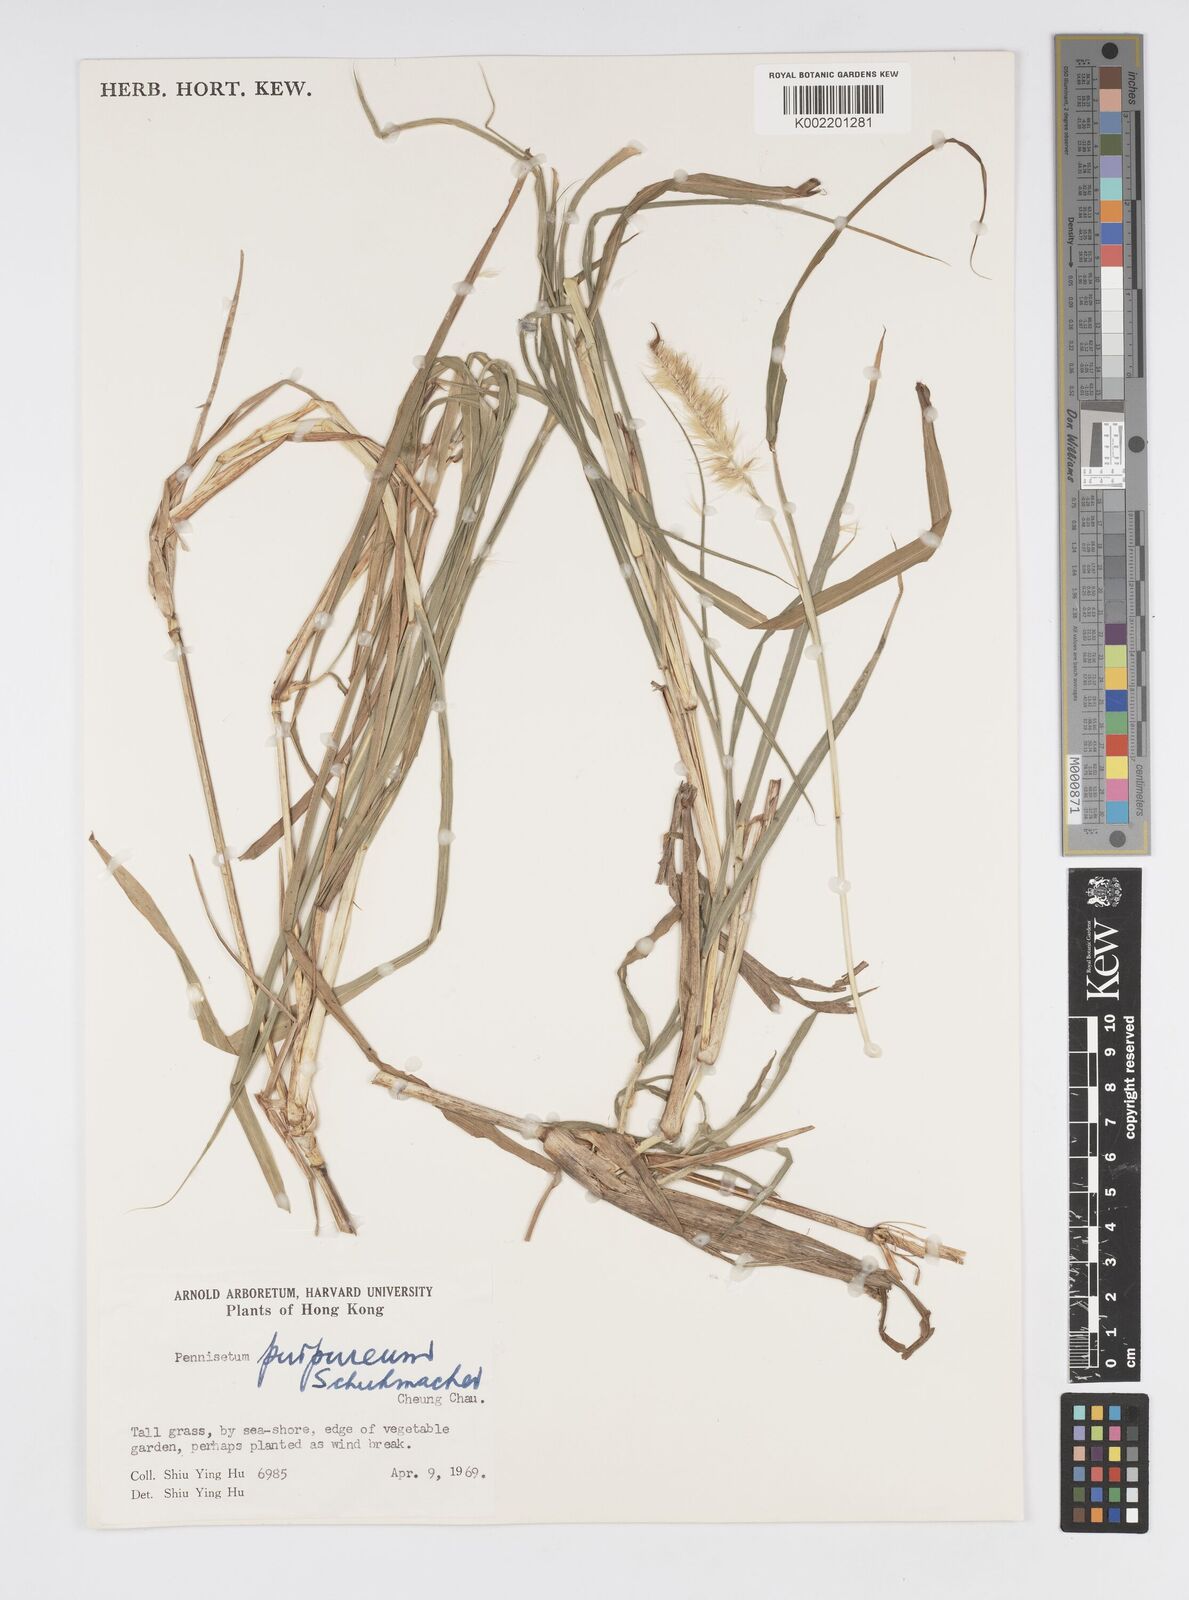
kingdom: Plantae
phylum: Tracheophyta
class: Liliopsida
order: Poales
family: Poaceae
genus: Cenchrus
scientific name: Cenchrus purpureus
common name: Elephant grass
